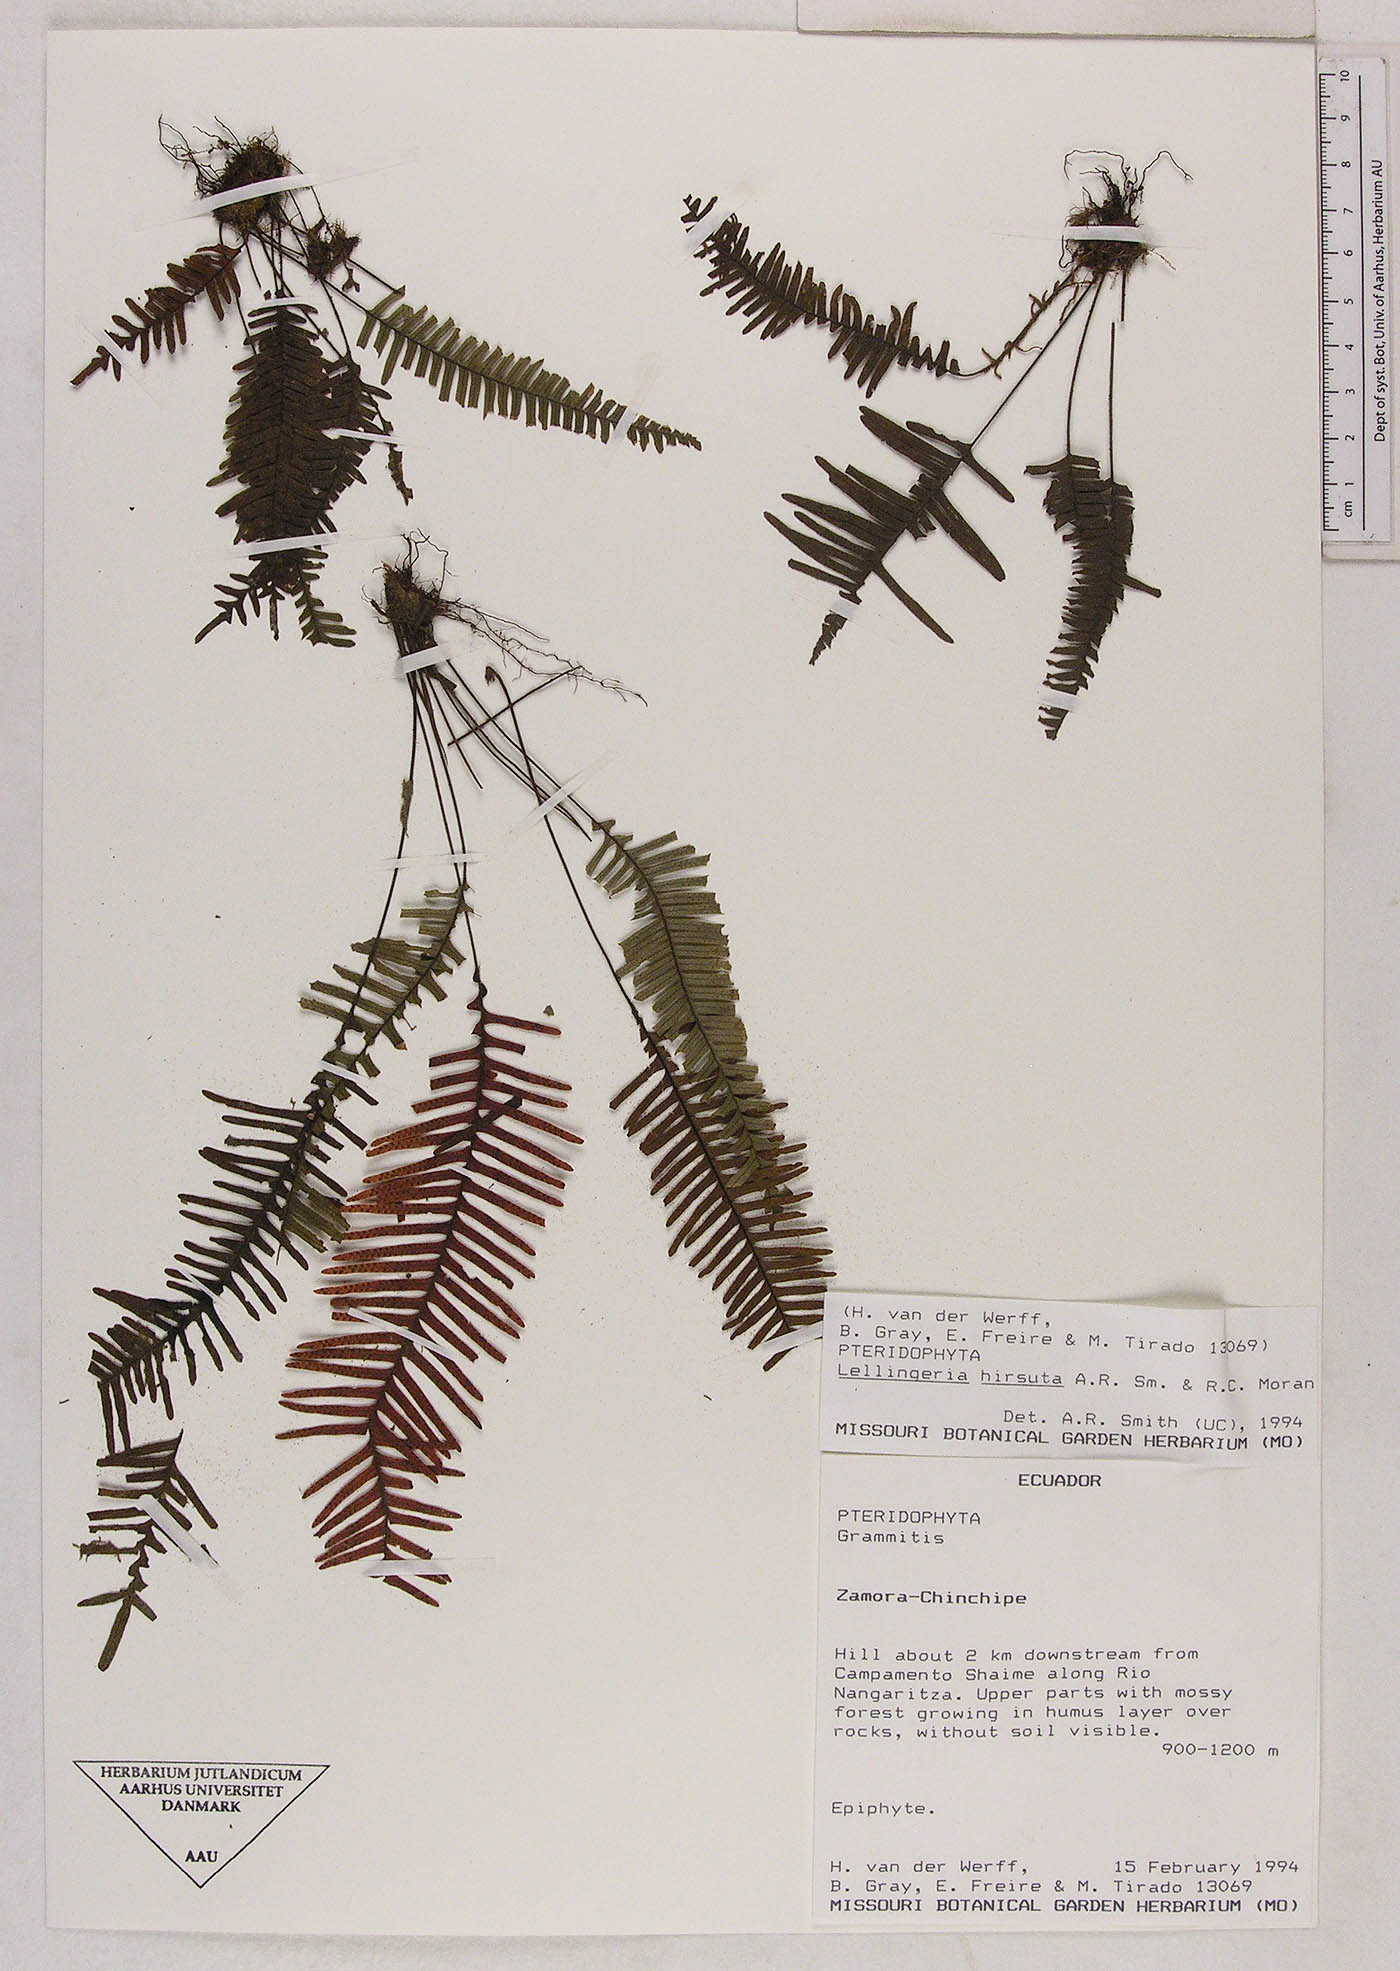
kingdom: Plantae
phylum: Tracheophyta
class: Polypodiopsida
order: Polypodiales
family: Polypodiaceae
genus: Lellingeria
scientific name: Lellingeria subimpressa
